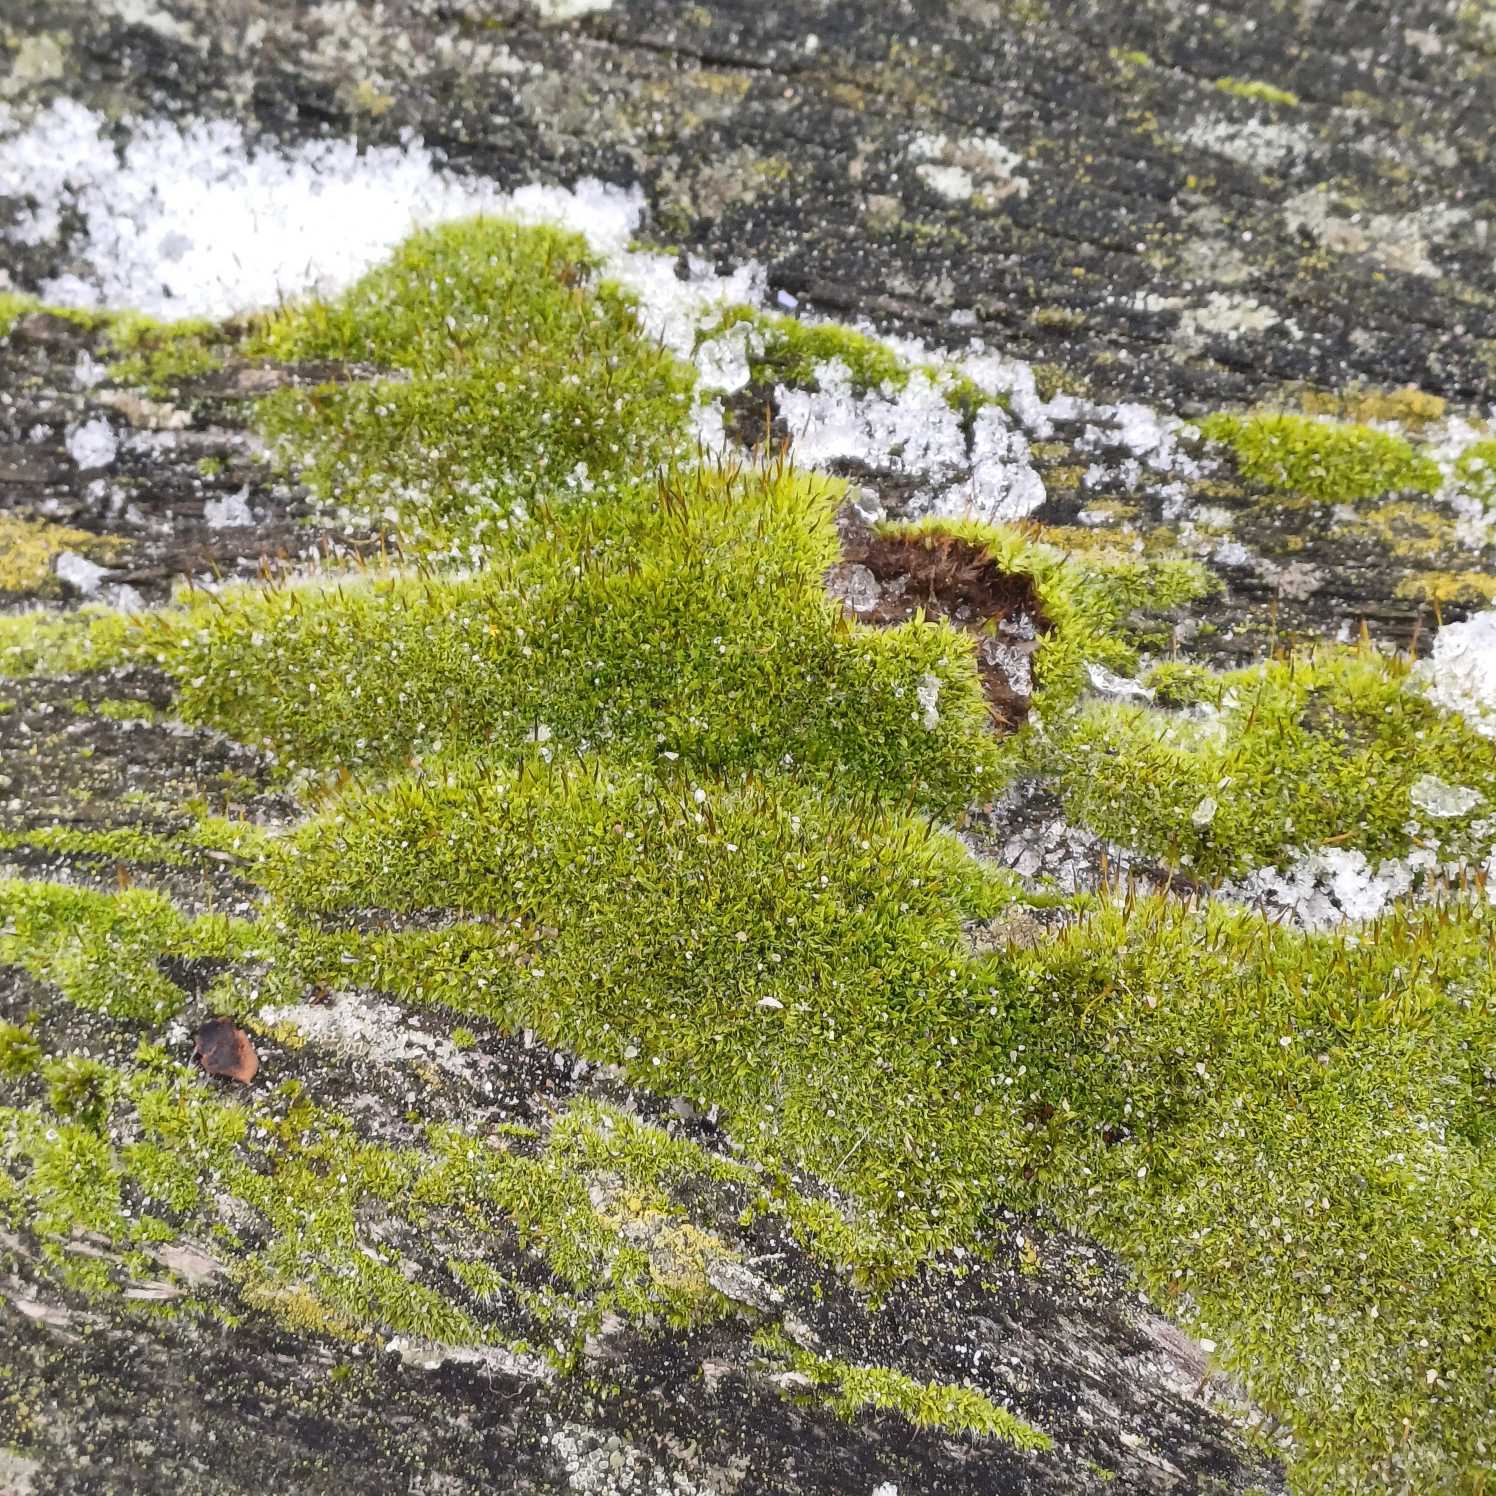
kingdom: Plantae
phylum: Bryophyta
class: Bryopsida
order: Pottiales
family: Pottiaceae
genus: Tortula
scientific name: Tortula muralis
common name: Mur-snotand
